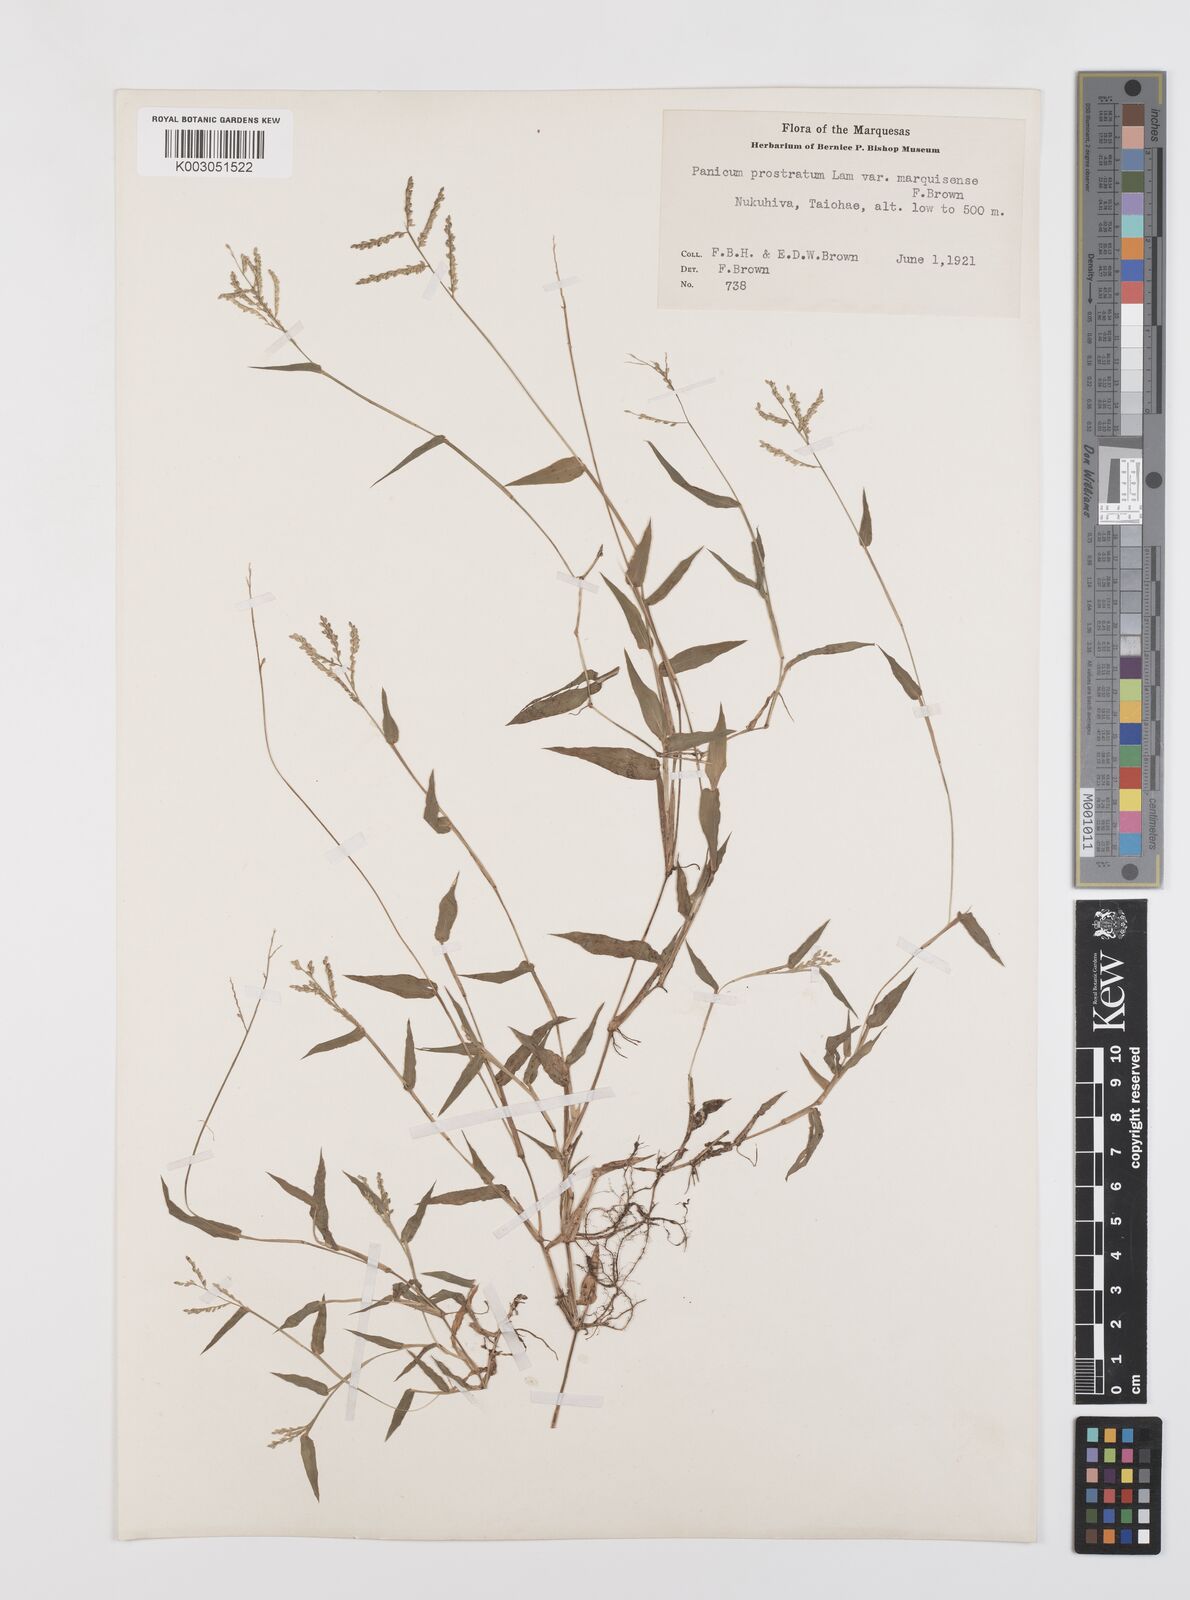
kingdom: Plantae
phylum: Tracheophyta
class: Liliopsida
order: Poales
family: Poaceae
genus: Urochloa
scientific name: Urochloa reptans
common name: Sprawling signalgrass
